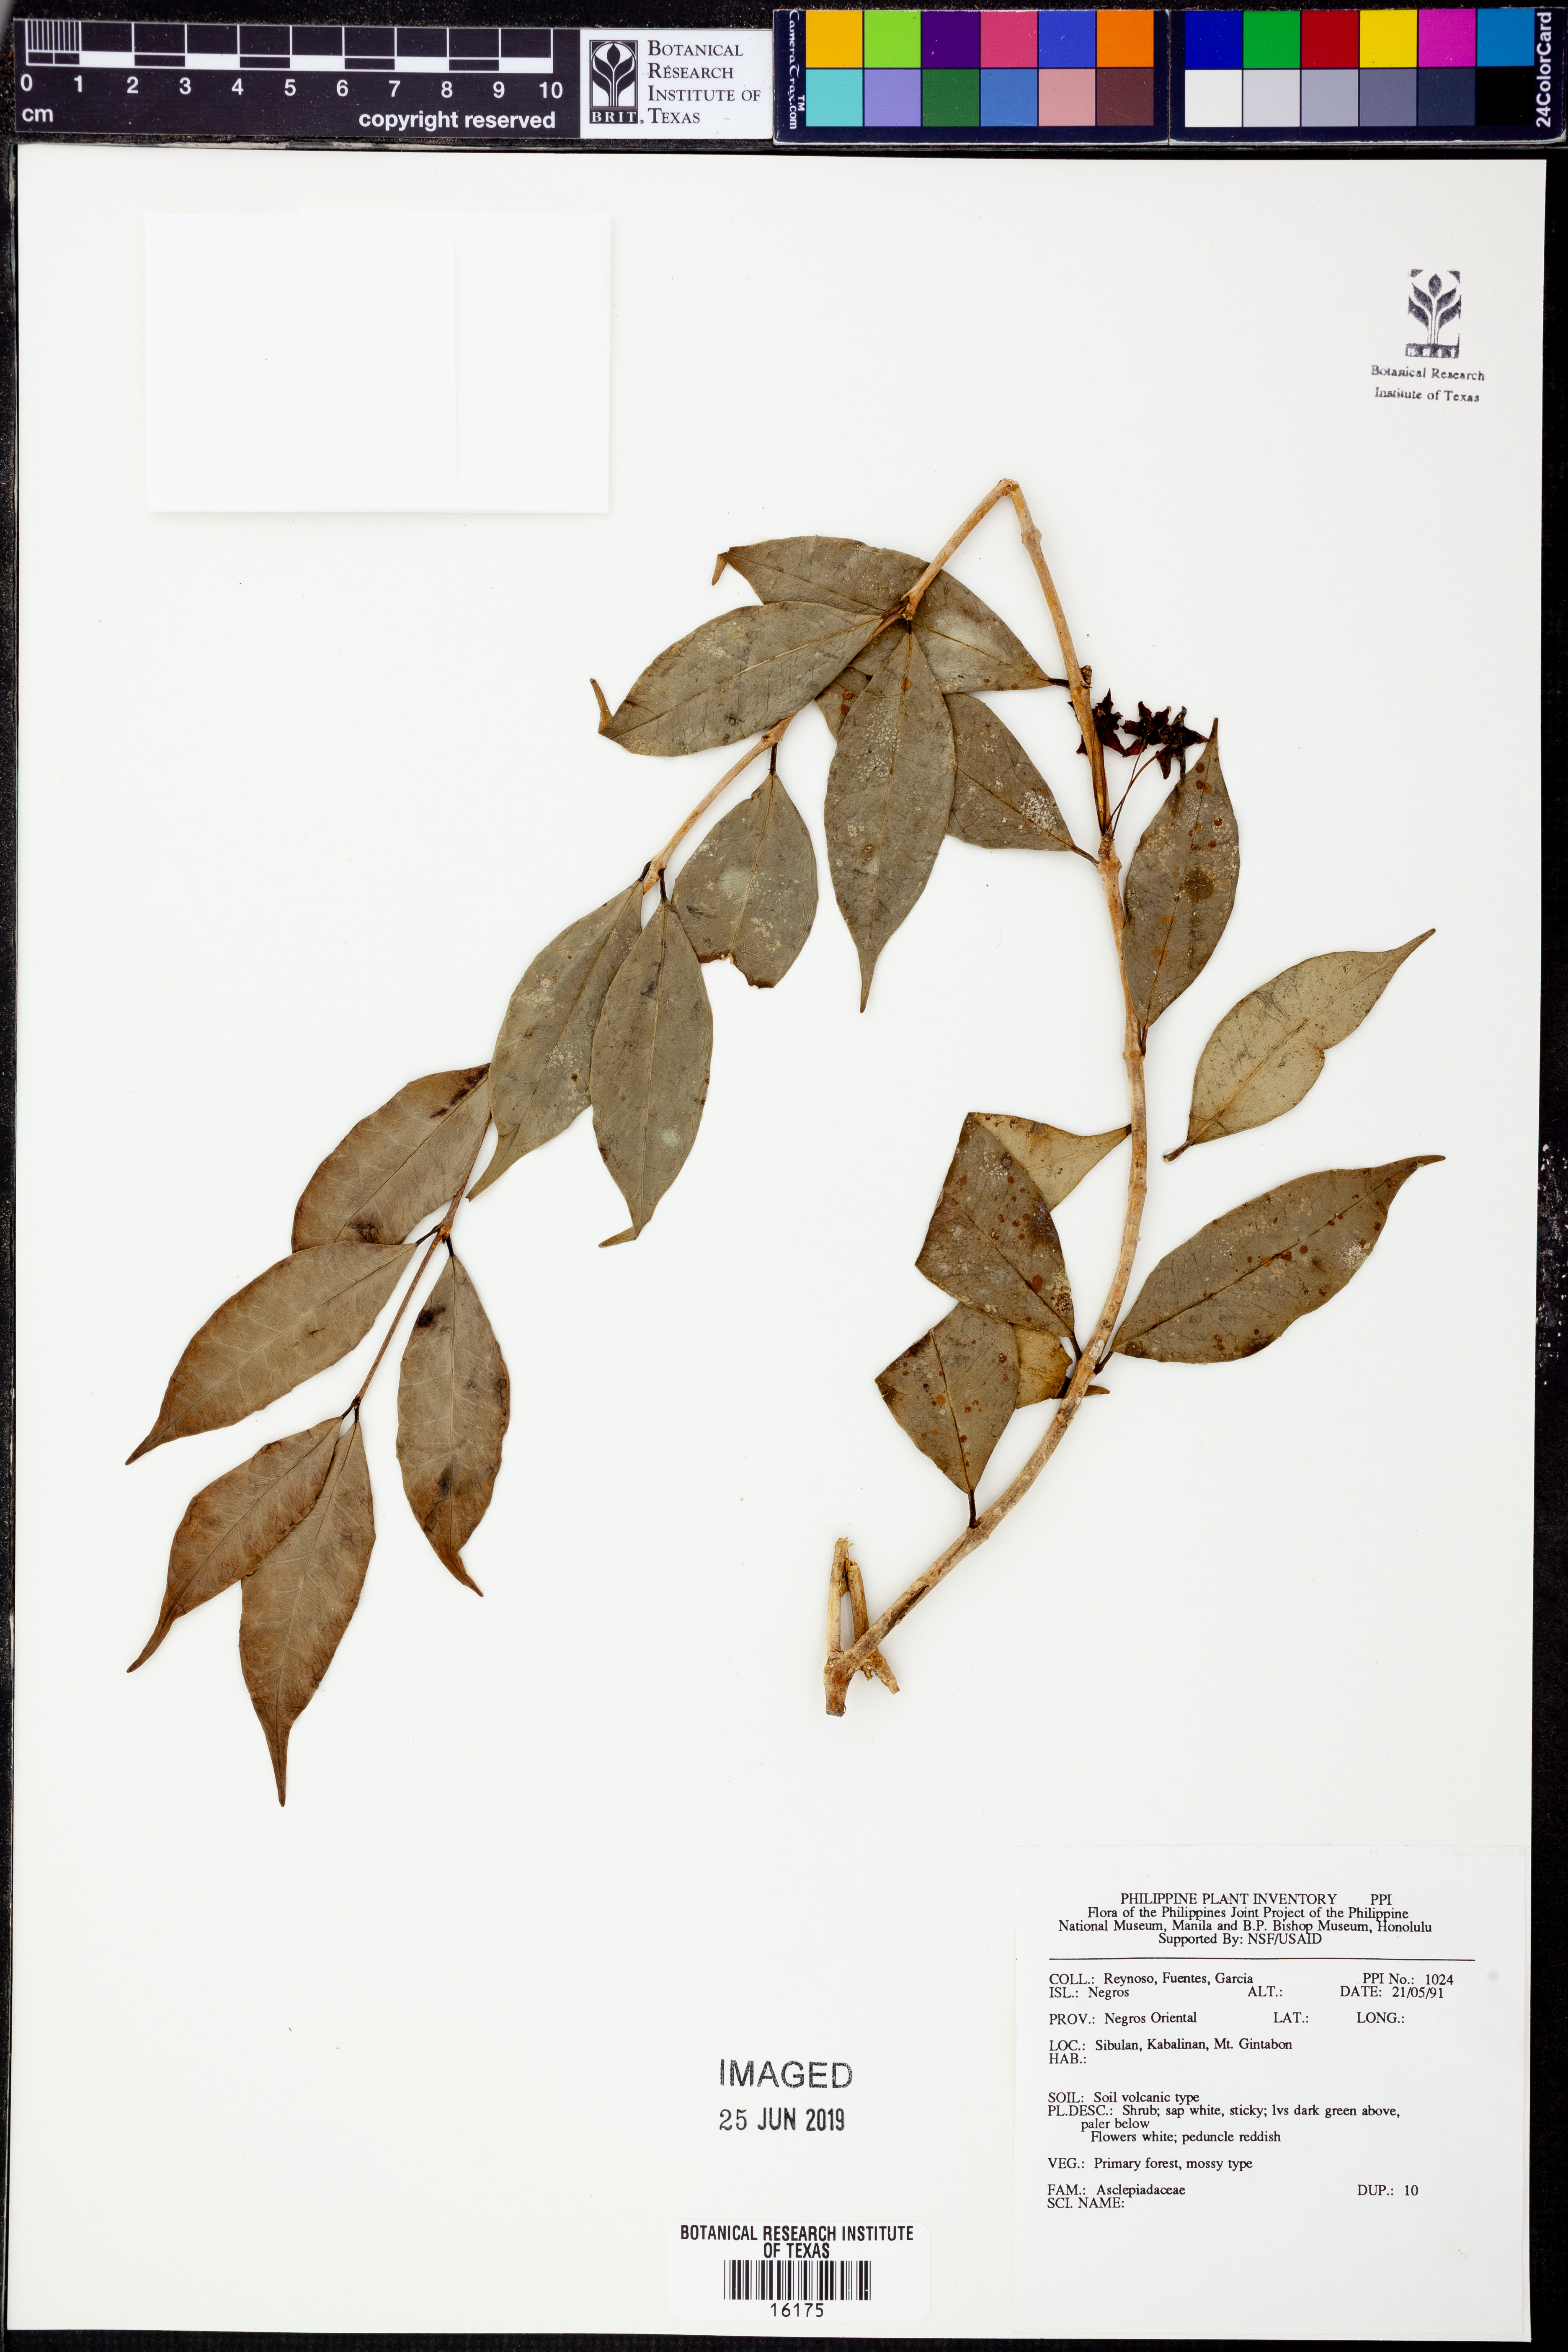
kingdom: Plantae
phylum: Tracheophyta
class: Magnoliopsida
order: Gentianales
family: Apocynaceae
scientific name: Apocynaceae
